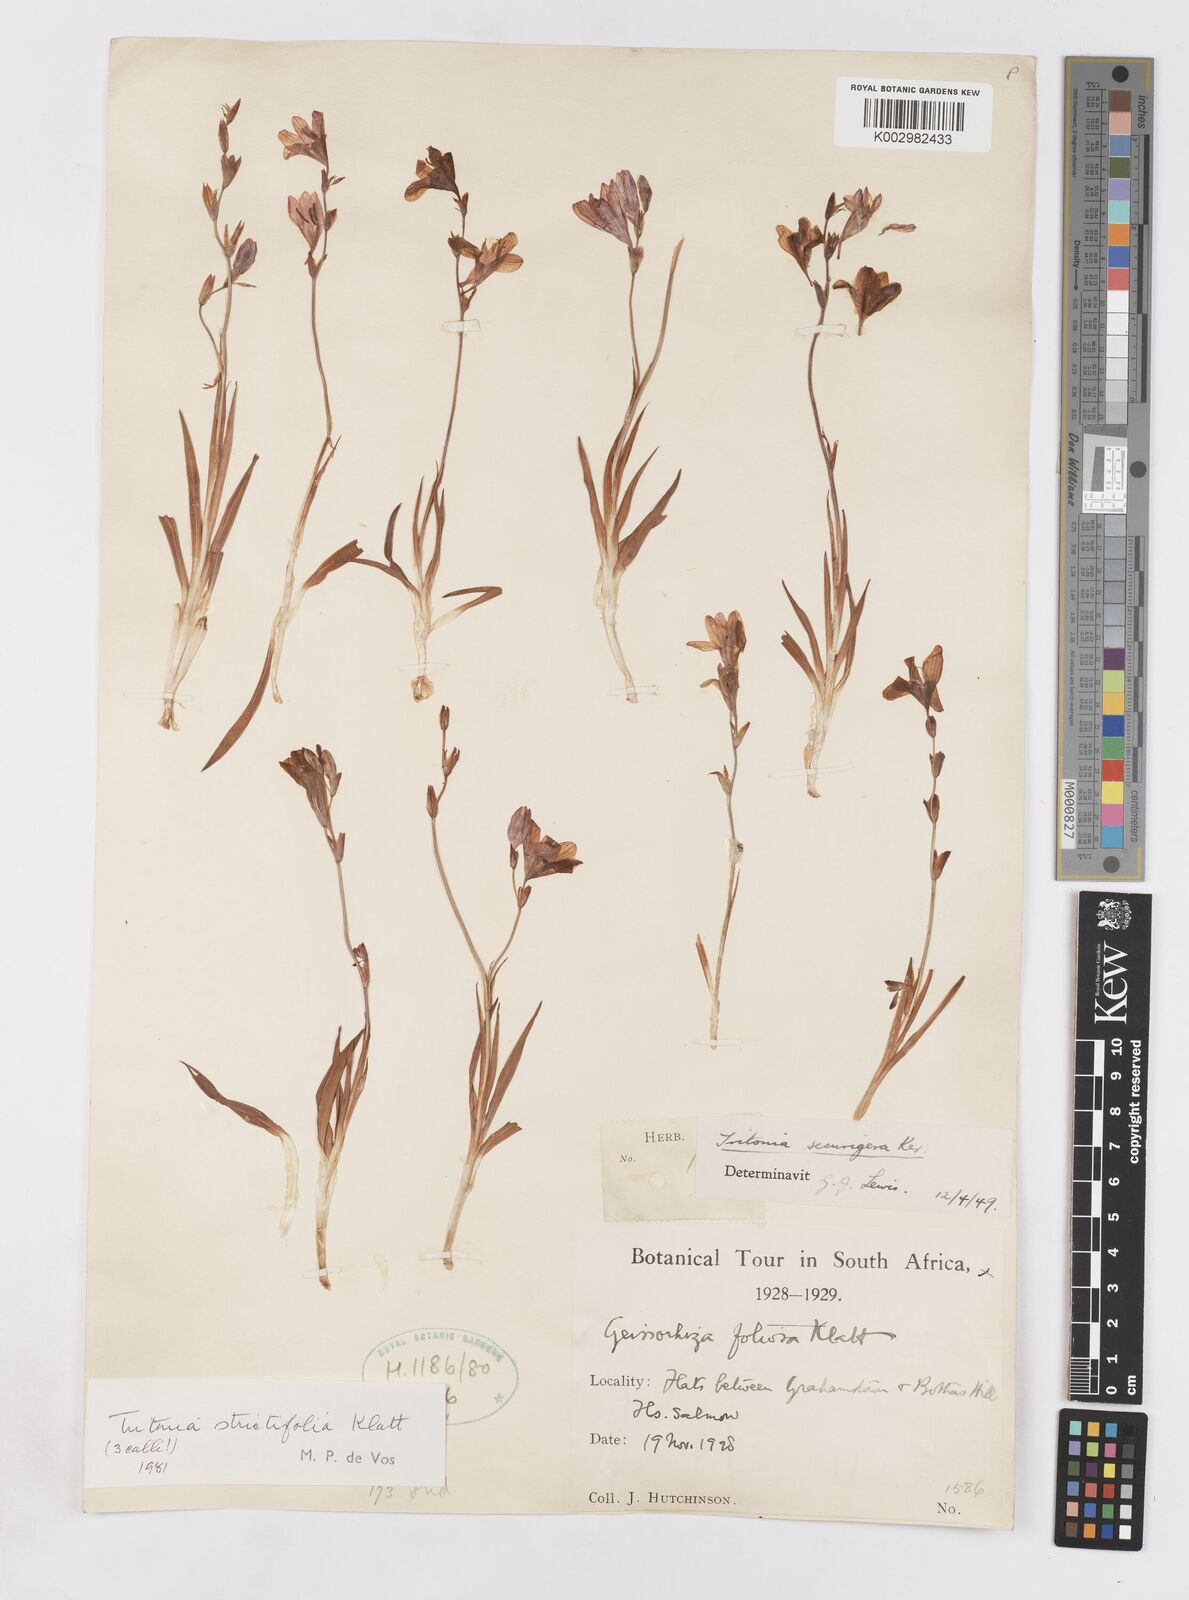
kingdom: Plantae
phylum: Tracheophyta
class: Liliopsida
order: Asparagales
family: Iridaceae
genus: Tritonia
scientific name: Tritonia laxifolia
